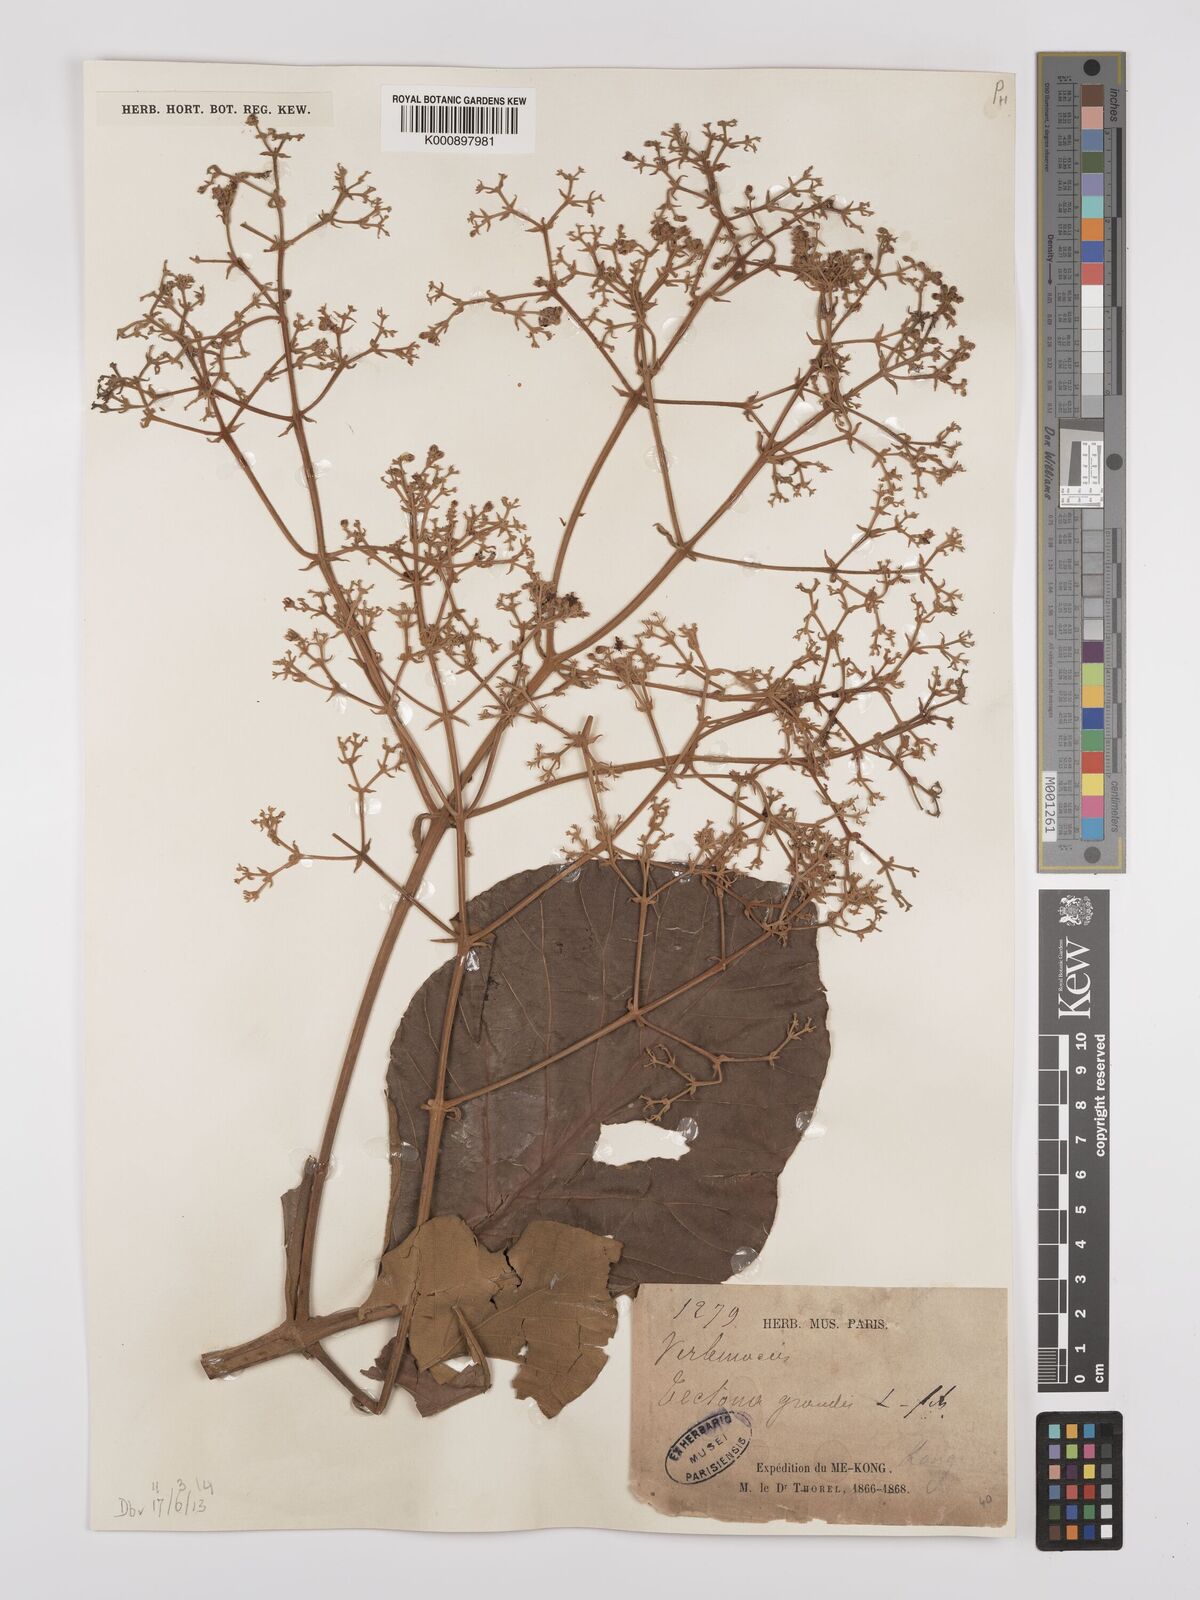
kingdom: Plantae
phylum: Tracheophyta
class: Magnoliopsida
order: Lamiales
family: Lamiaceae
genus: Tectona
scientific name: Tectona grandis
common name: Teak
